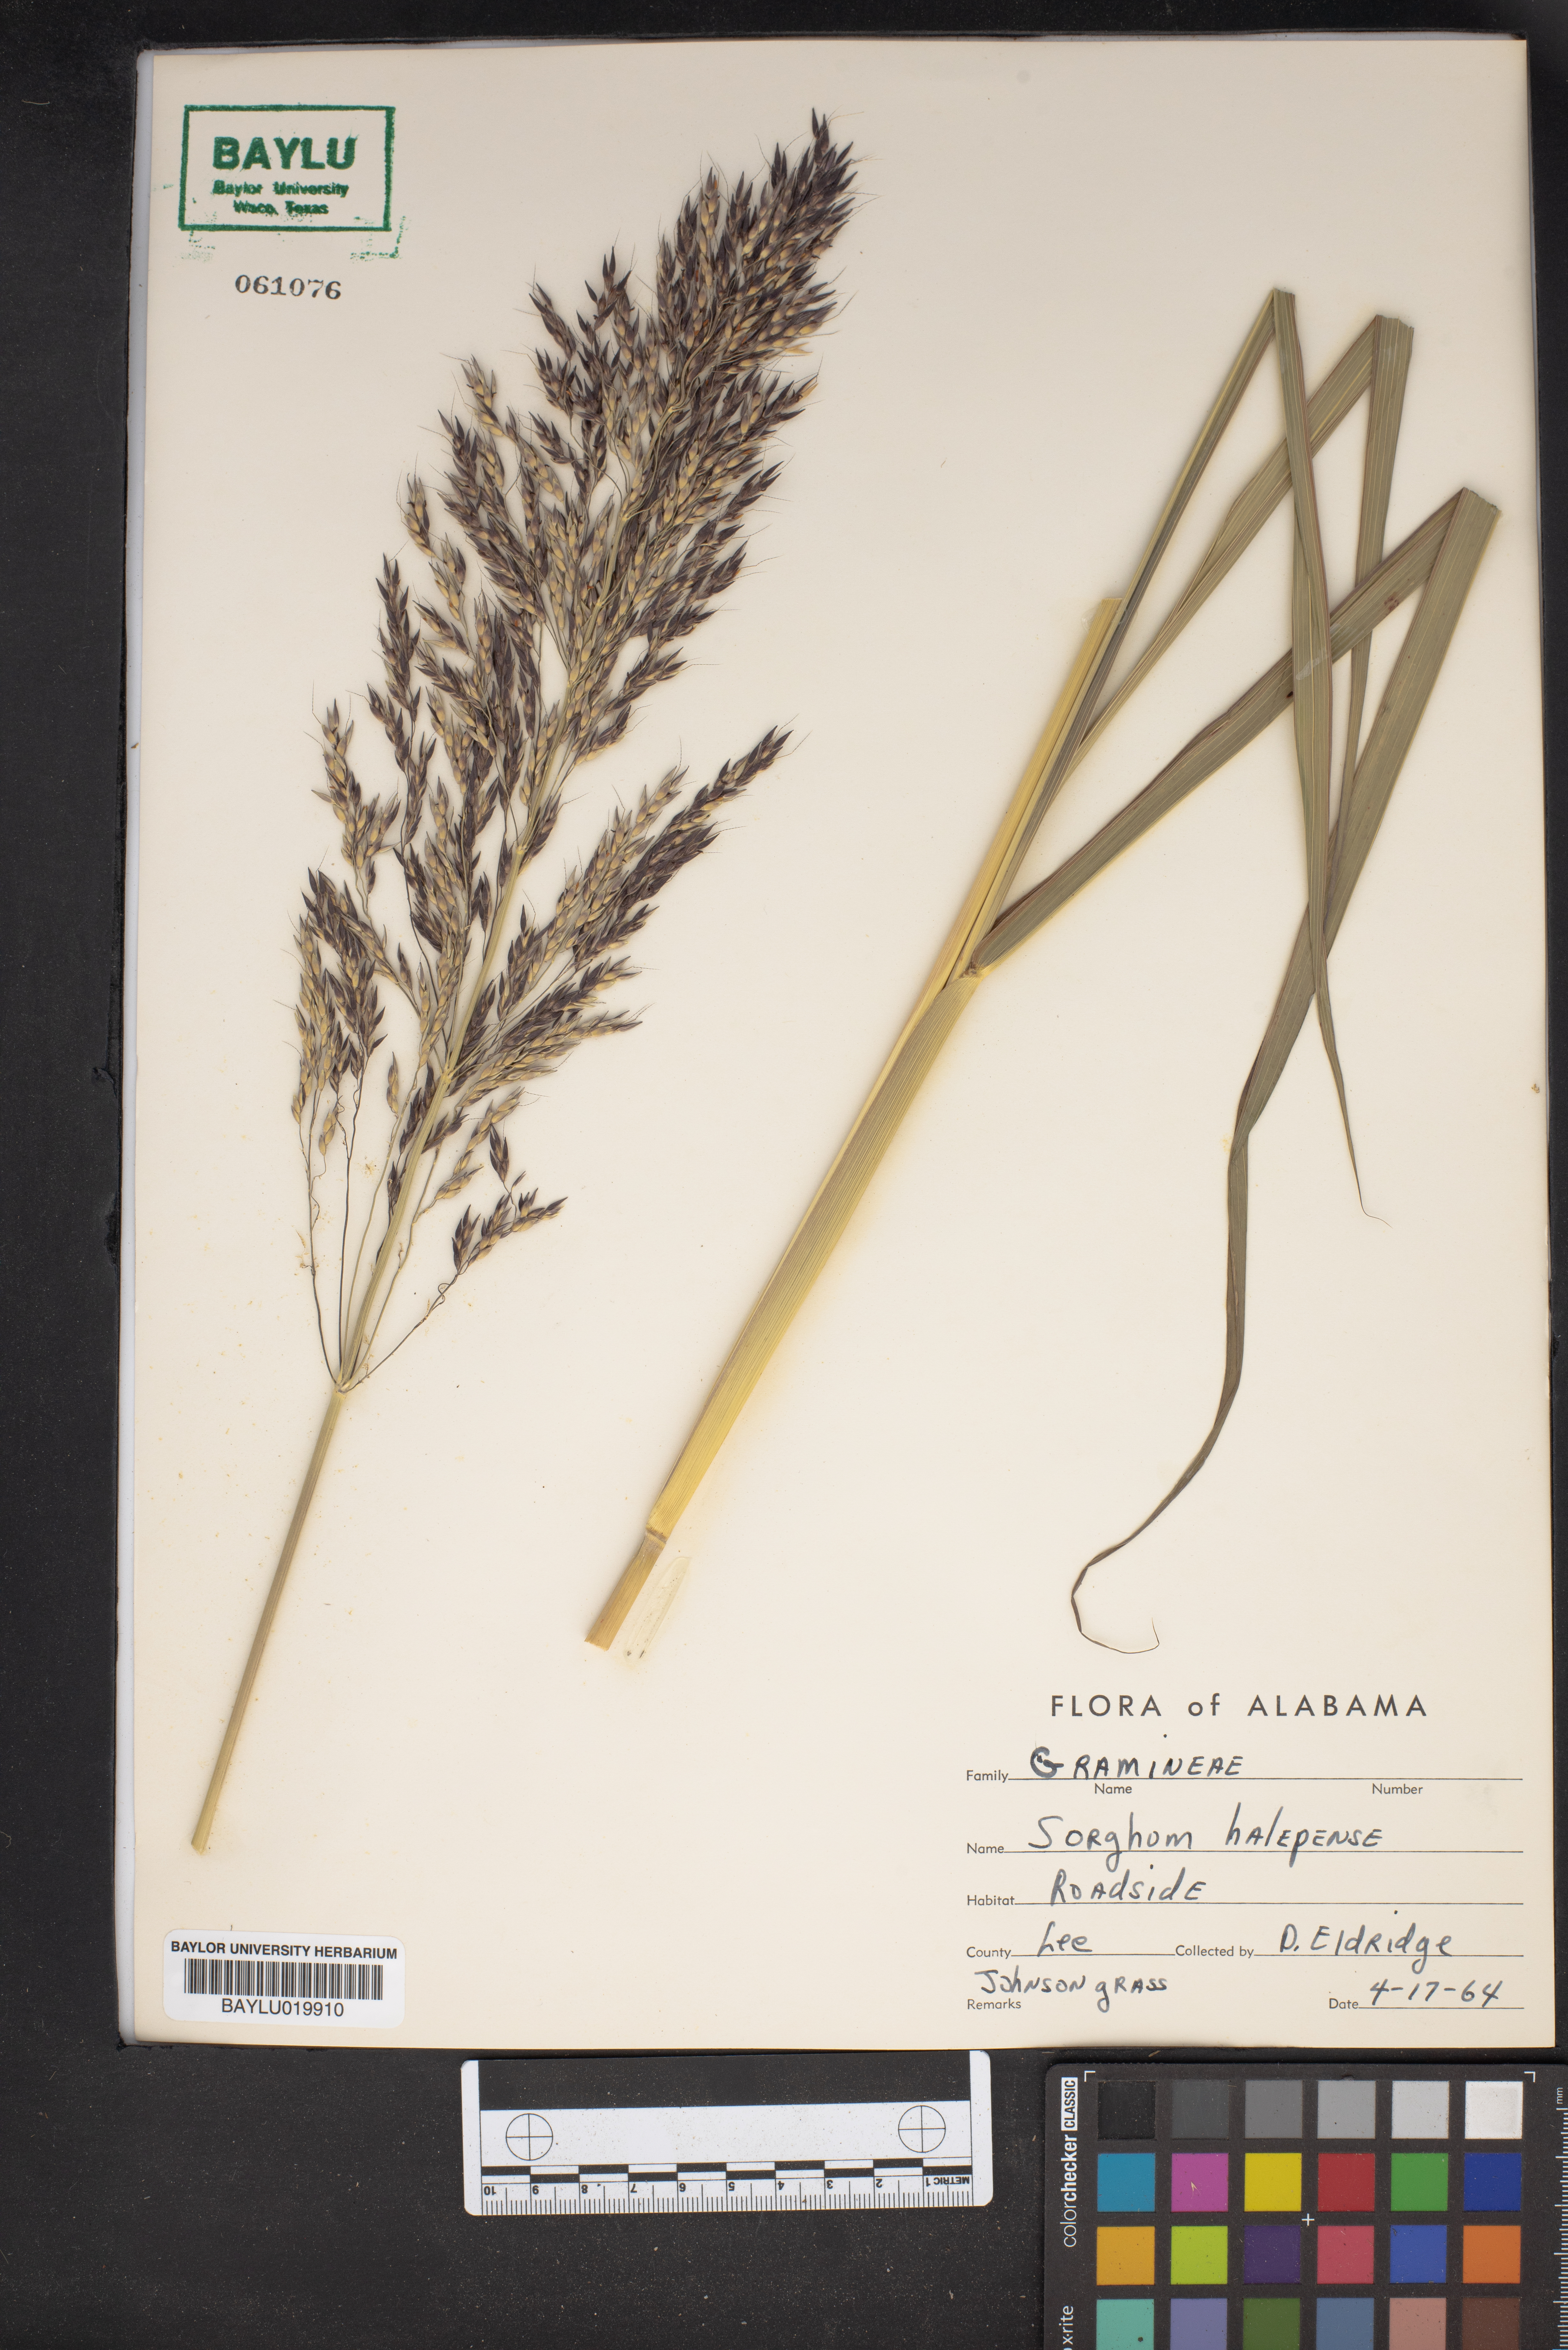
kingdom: Plantae
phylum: Tracheophyta
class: Liliopsida
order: Poales
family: Poaceae
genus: Sorghum
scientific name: Sorghum halepense
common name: Johnson-grass
